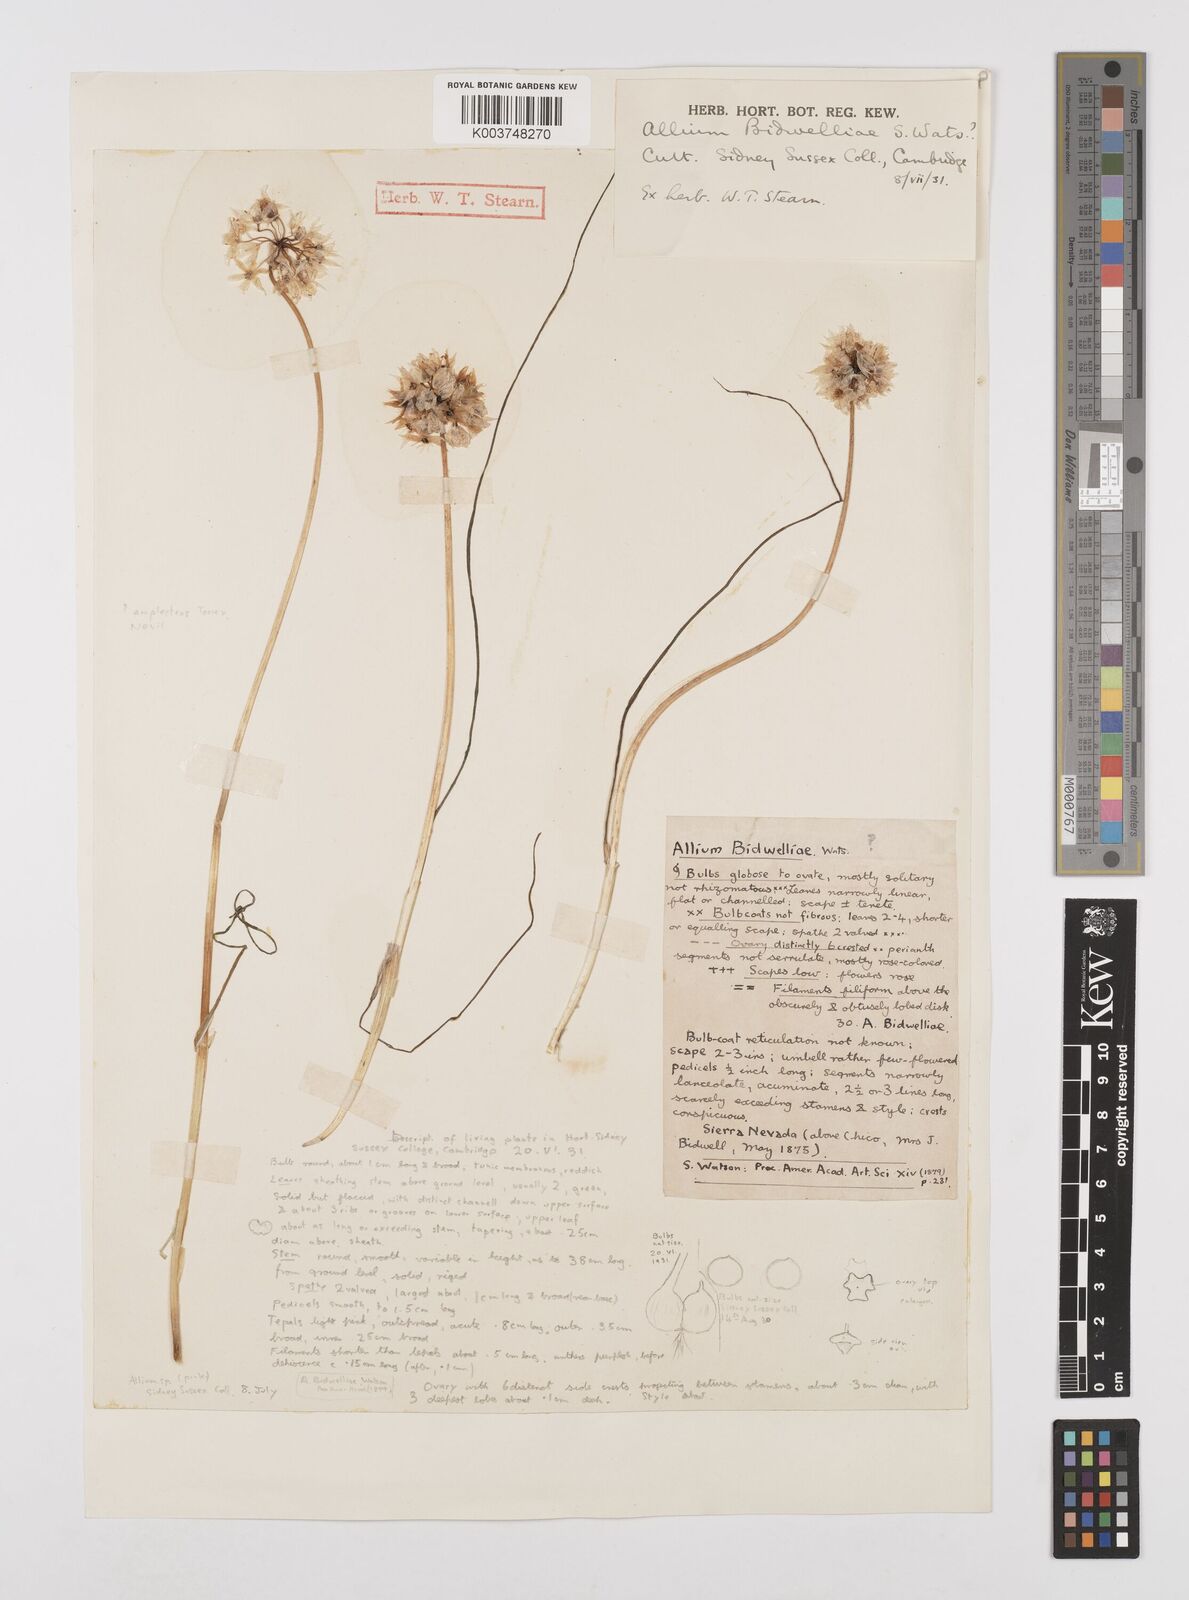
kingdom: Plantae
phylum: Tracheophyta
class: Liliopsida
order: Asparagales
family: Amaryllidaceae
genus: Allium
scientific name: Allium campanulatum
